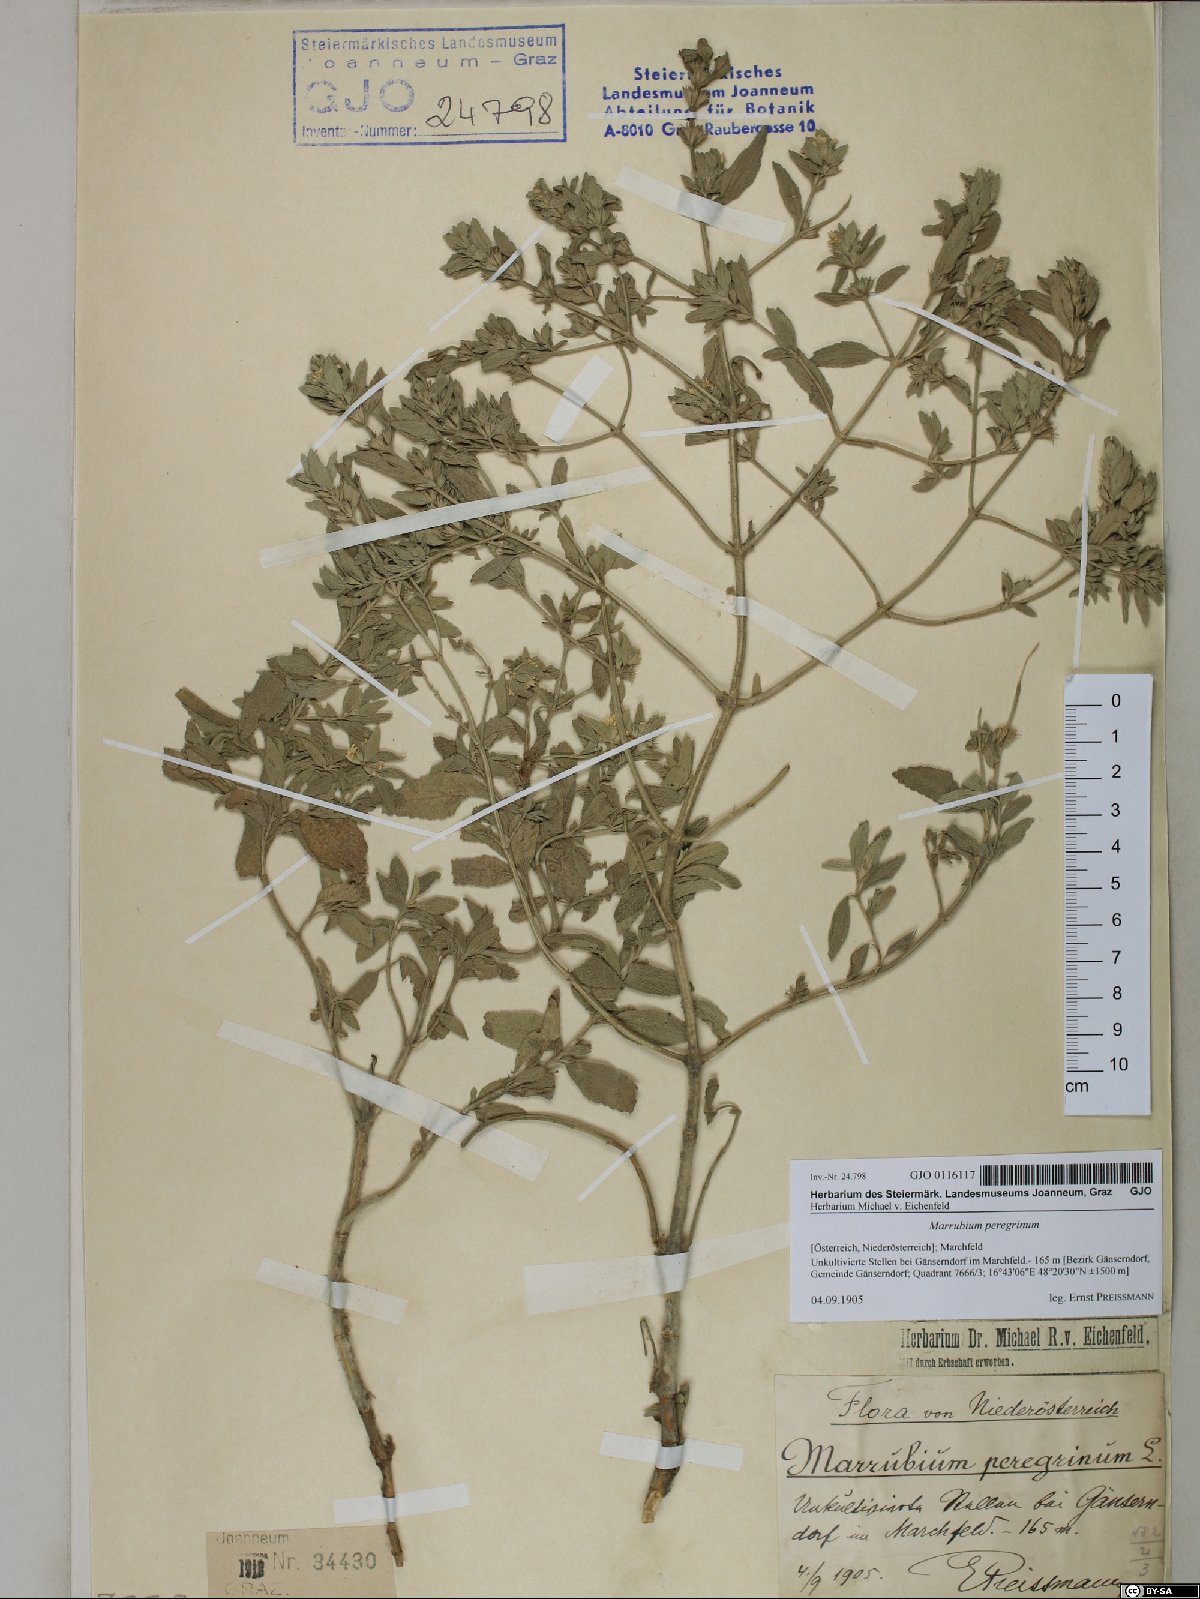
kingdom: Plantae
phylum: Tracheophyta
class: Magnoliopsida
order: Lamiales
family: Lamiaceae
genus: Marrubium
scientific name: Marrubium peregrinum
